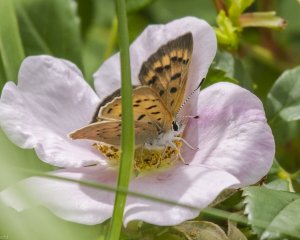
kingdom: Animalia
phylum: Arthropoda
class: Insecta
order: Lepidoptera
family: Lycaenidae
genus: Epidemia
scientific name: Epidemia dorcas
